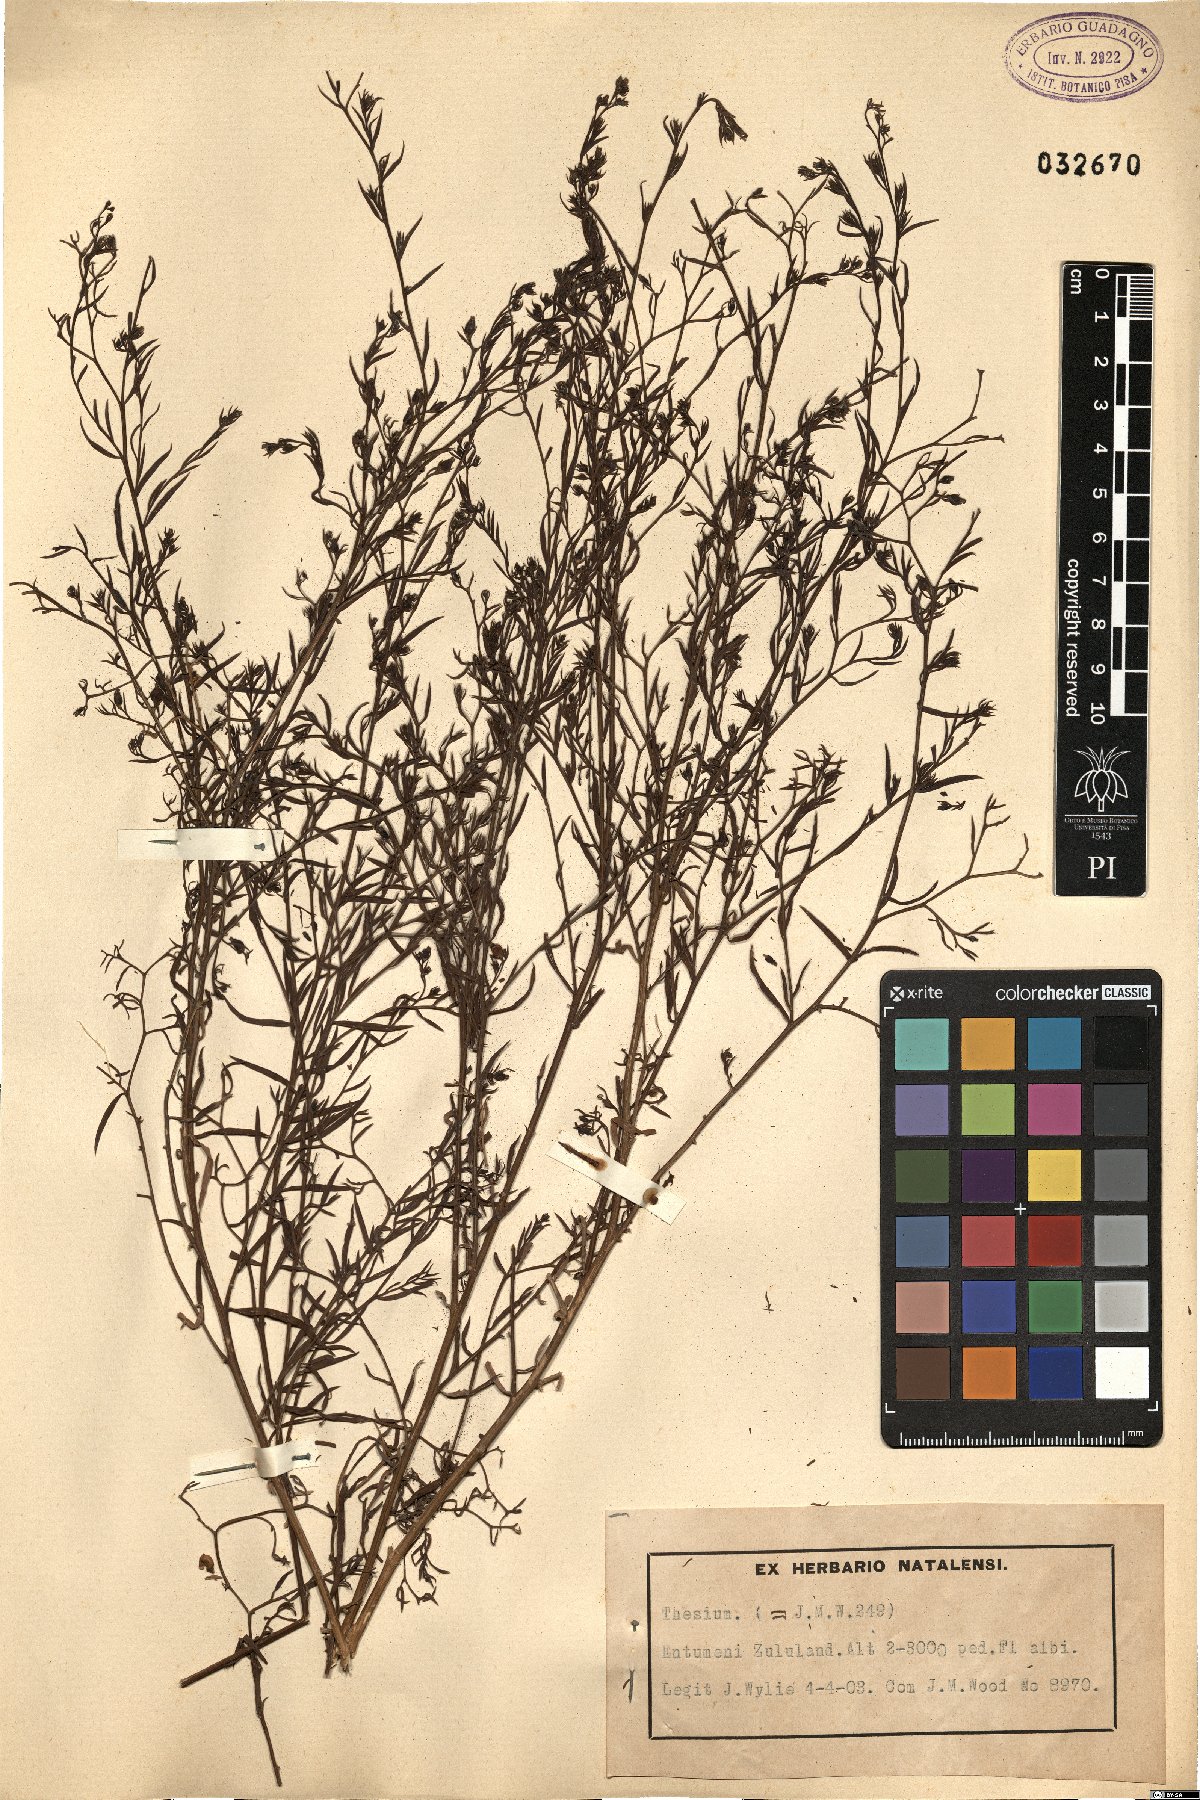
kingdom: Plantae
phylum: Tracheophyta
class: Magnoliopsida
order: Santalales
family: Thesiaceae
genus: Thesium
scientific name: Thesium
